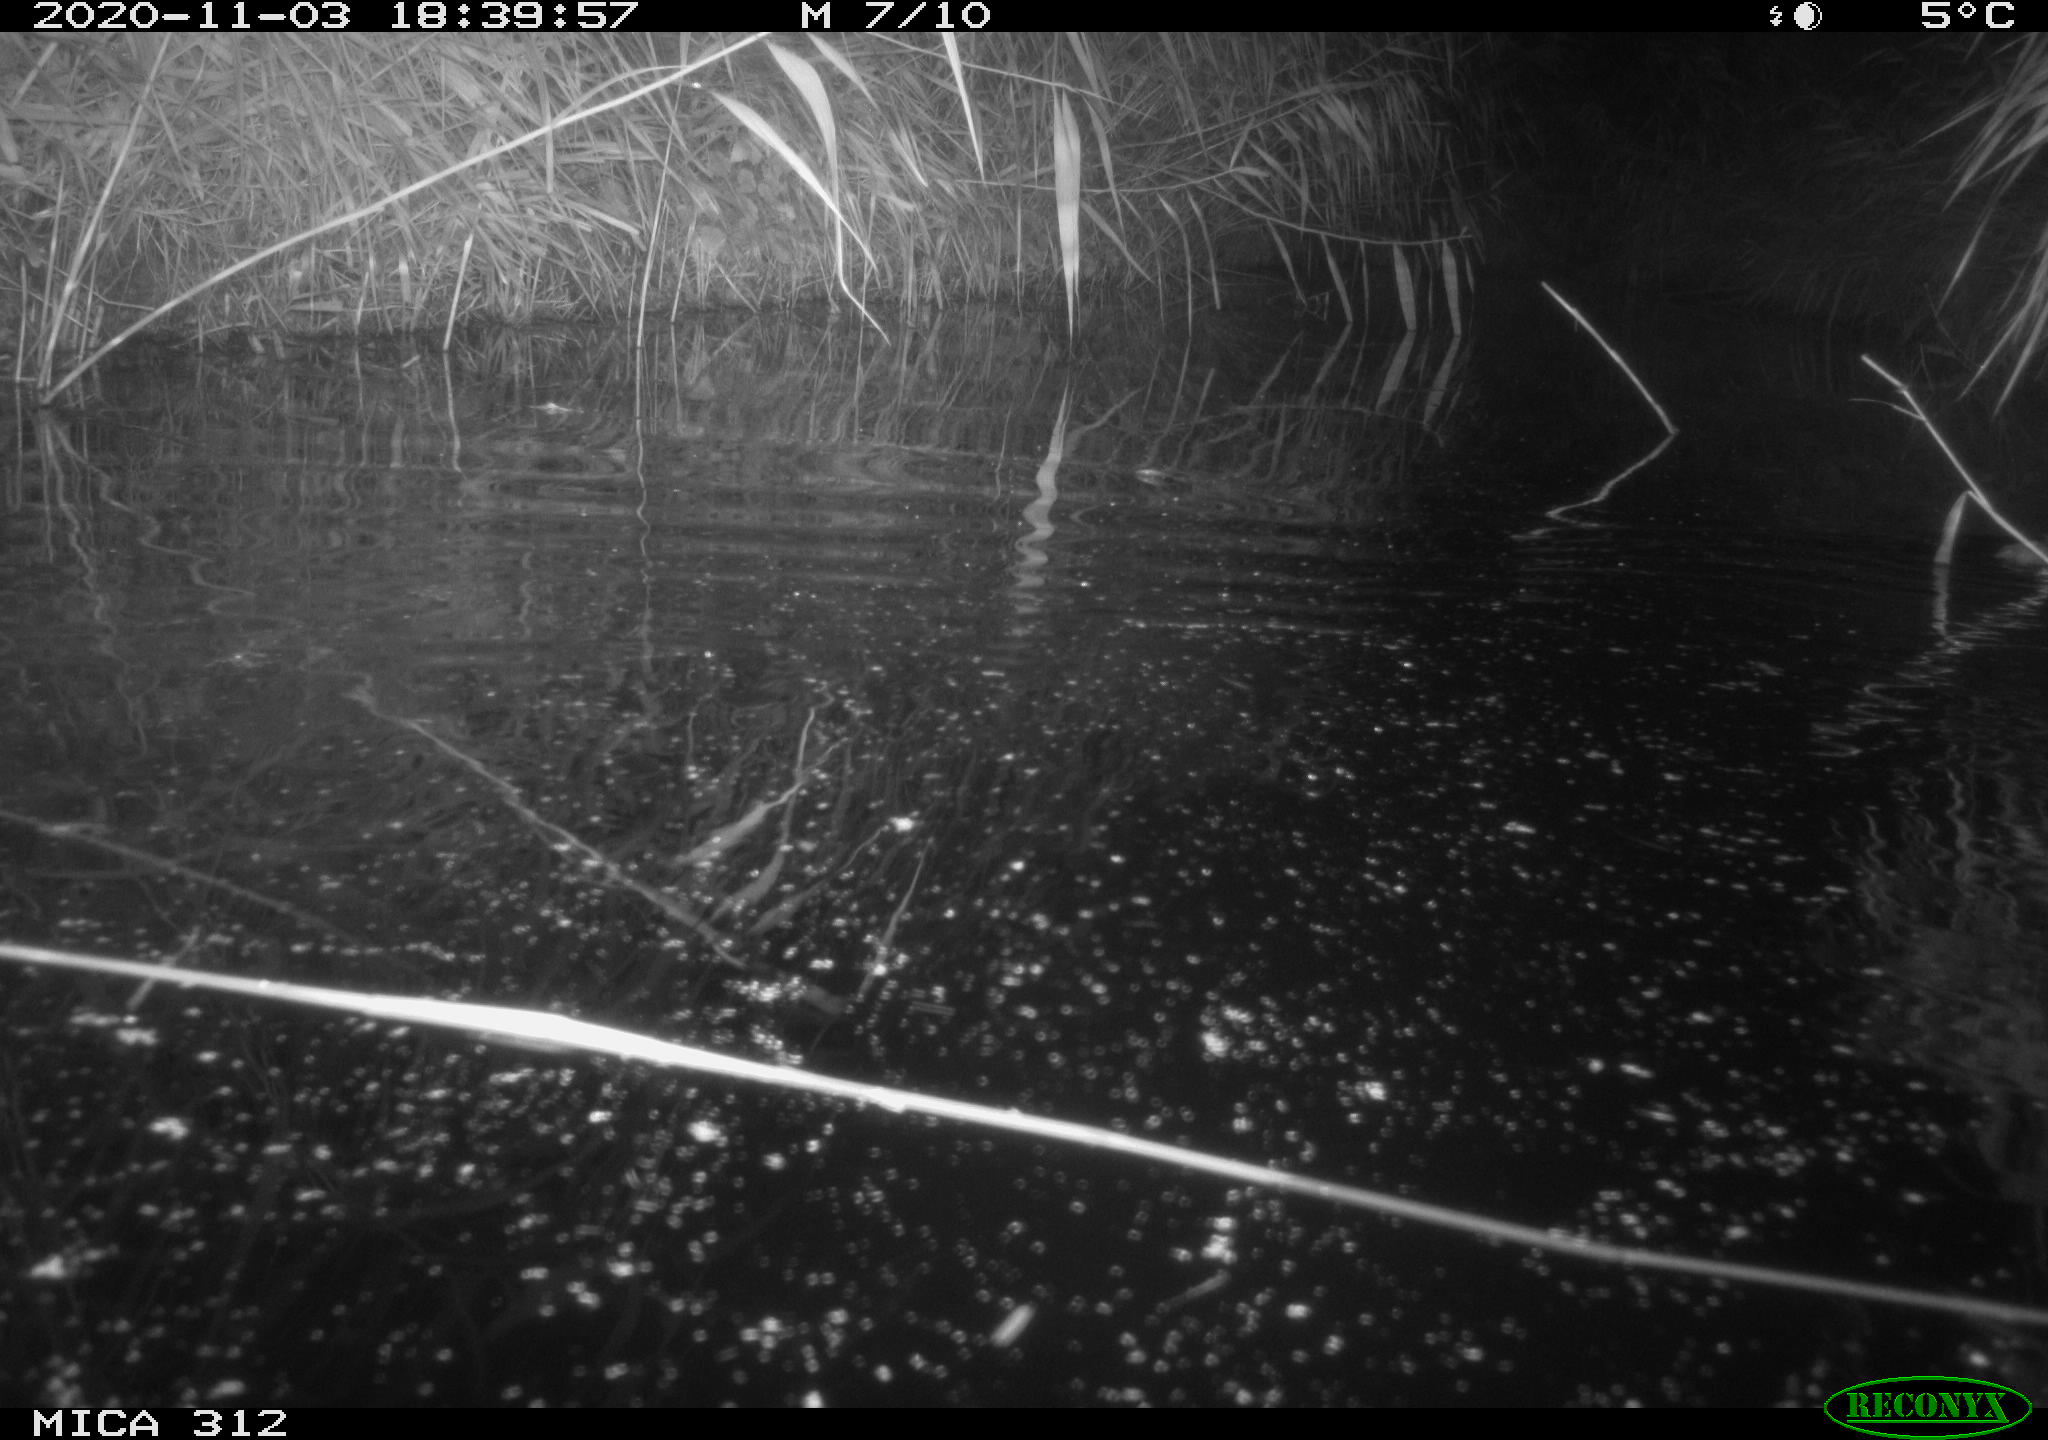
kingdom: Animalia
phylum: Chordata
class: Mammalia
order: Rodentia
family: Cricetidae
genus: Ondatra
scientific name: Ondatra zibethicus
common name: Muskrat
